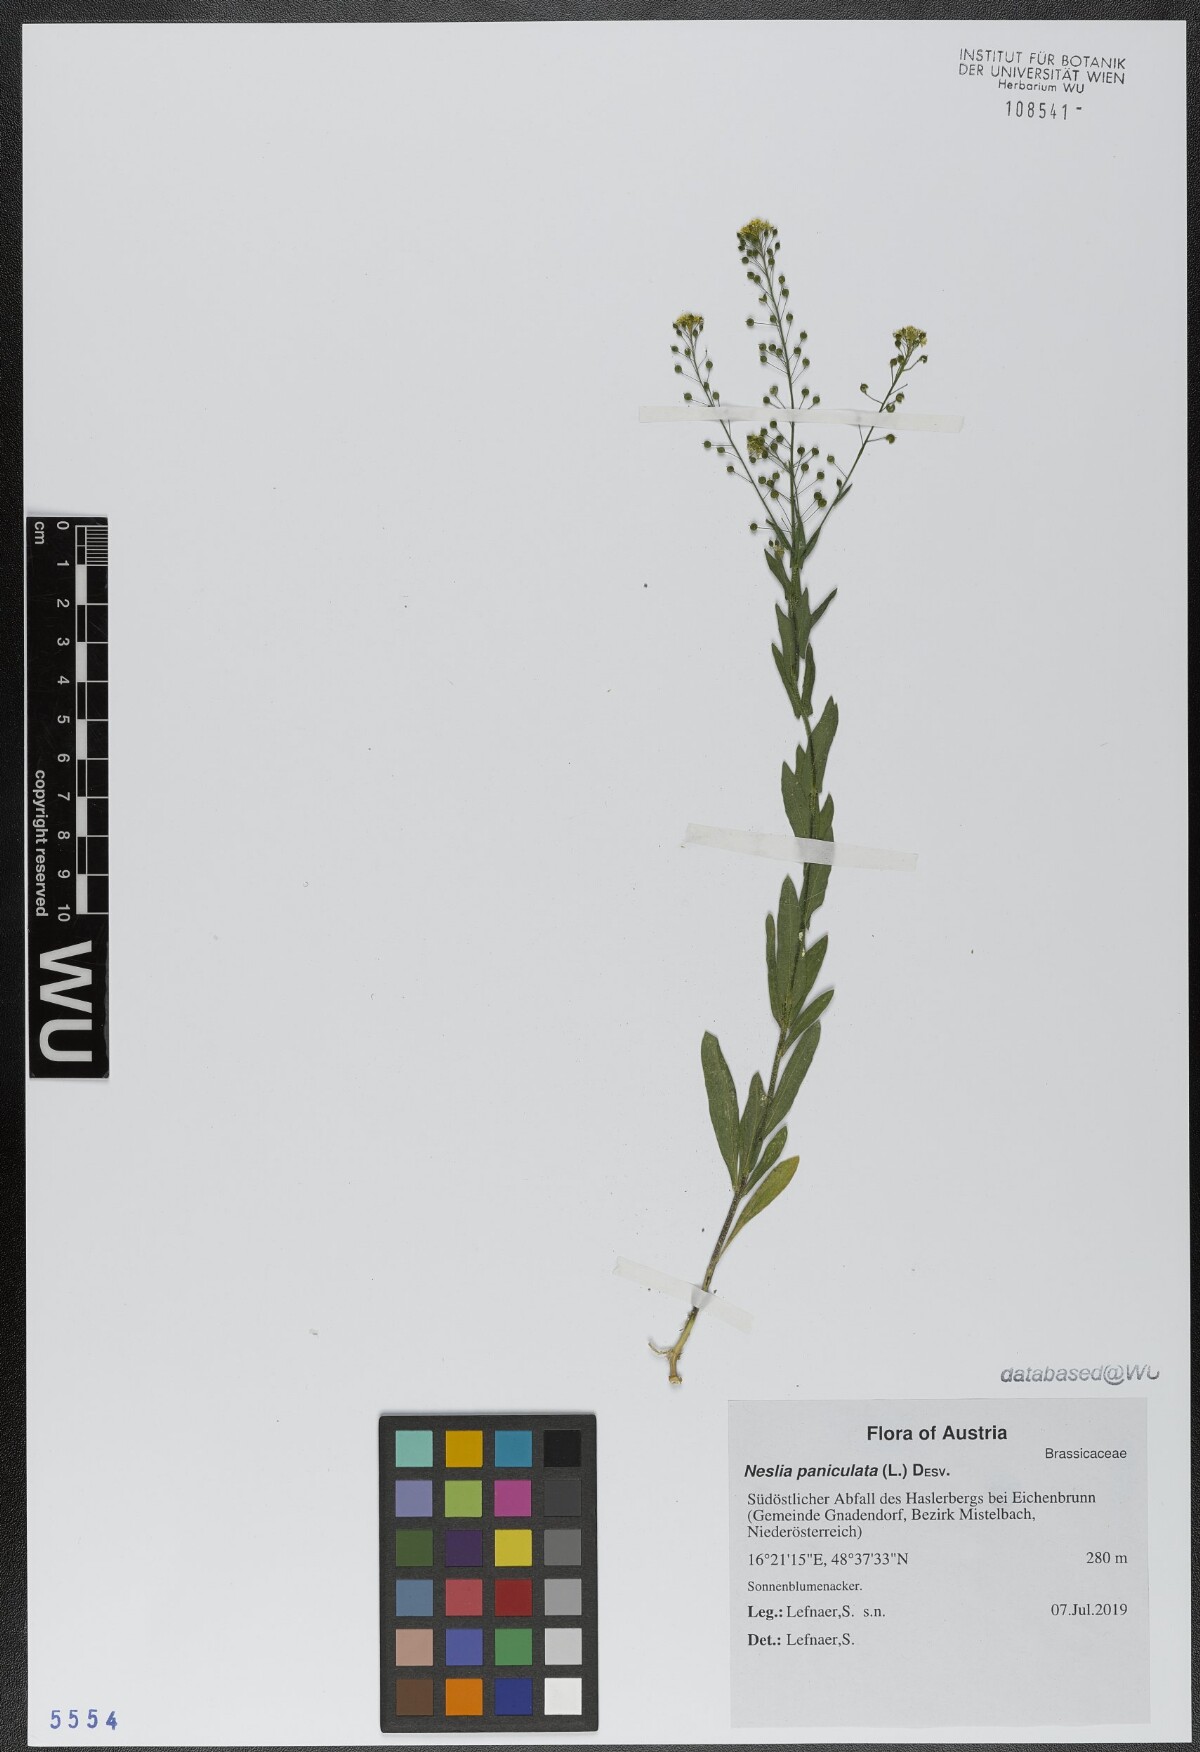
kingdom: Plantae
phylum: Tracheophyta
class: Magnoliopsida
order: Brassicales
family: Brassicaceae
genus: Neslia
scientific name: Neslia paniculata
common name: Ball mustard
